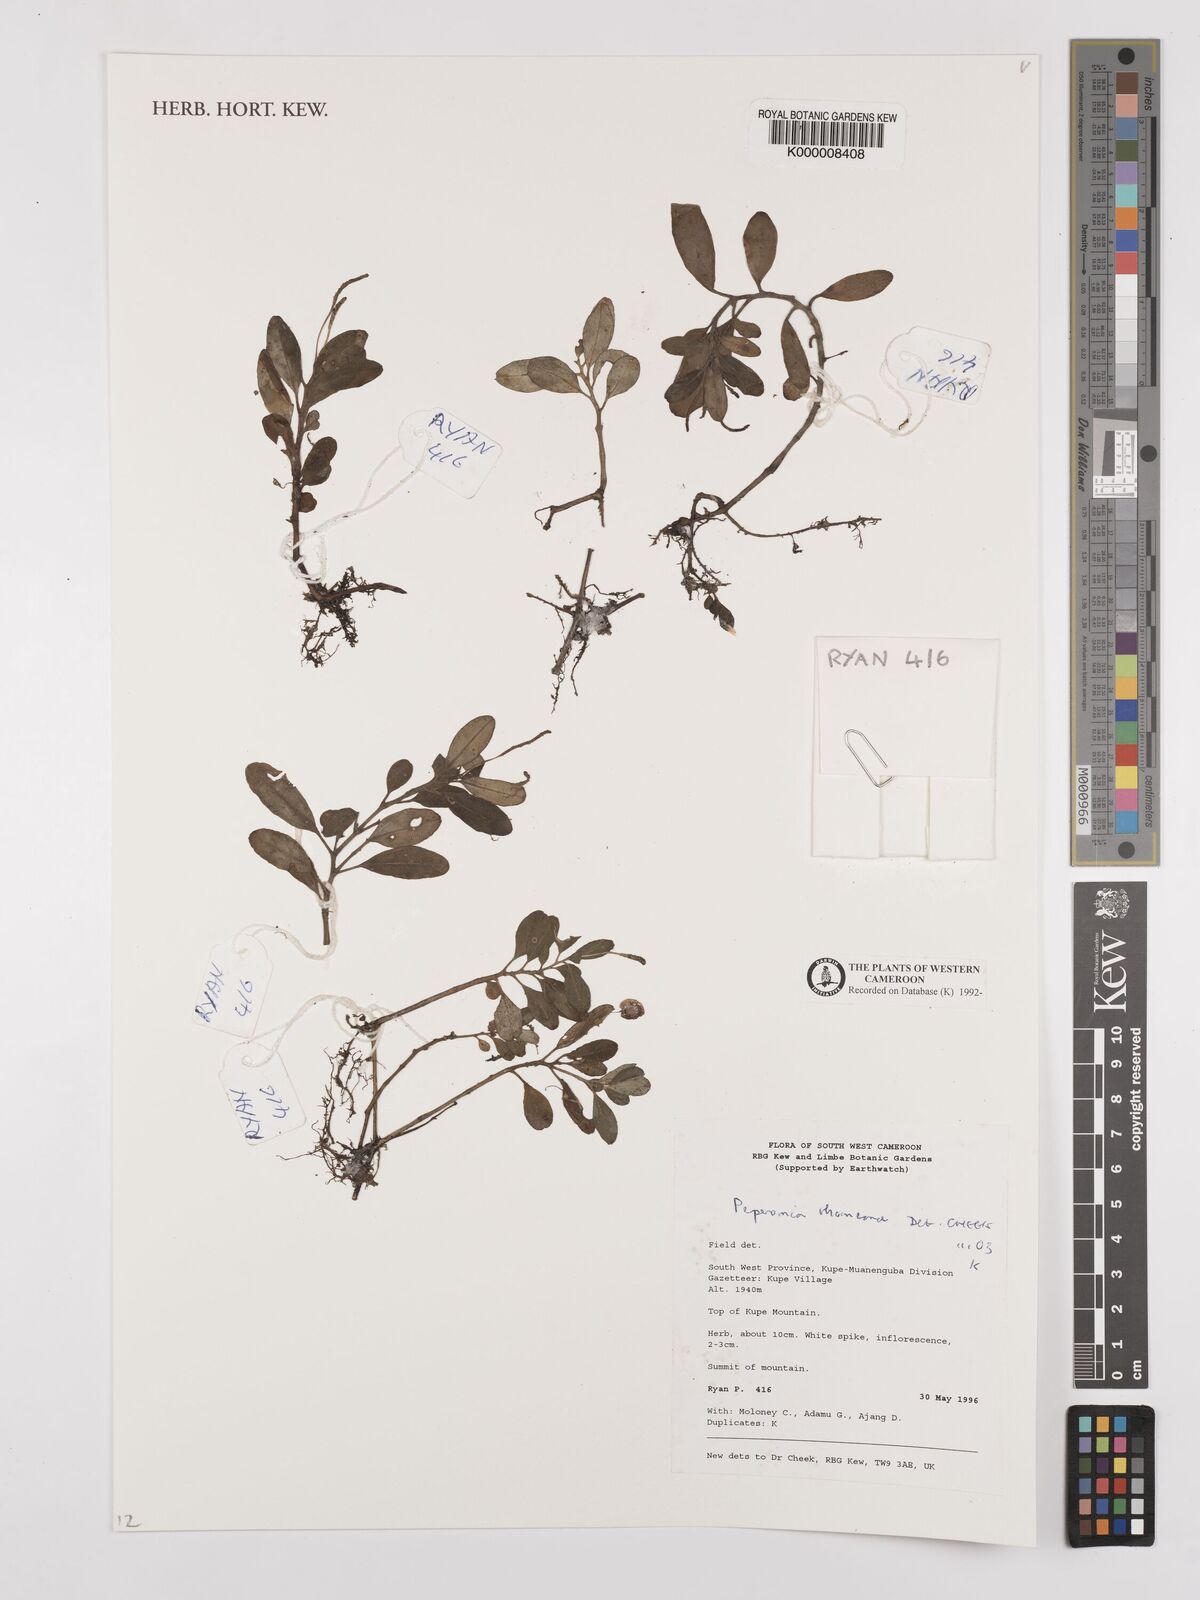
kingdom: Plantae
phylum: Tracheophyta
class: Magnoliopsida
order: Piperales
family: Piperaceae
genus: Peperomia
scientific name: Peperomia thomeana
